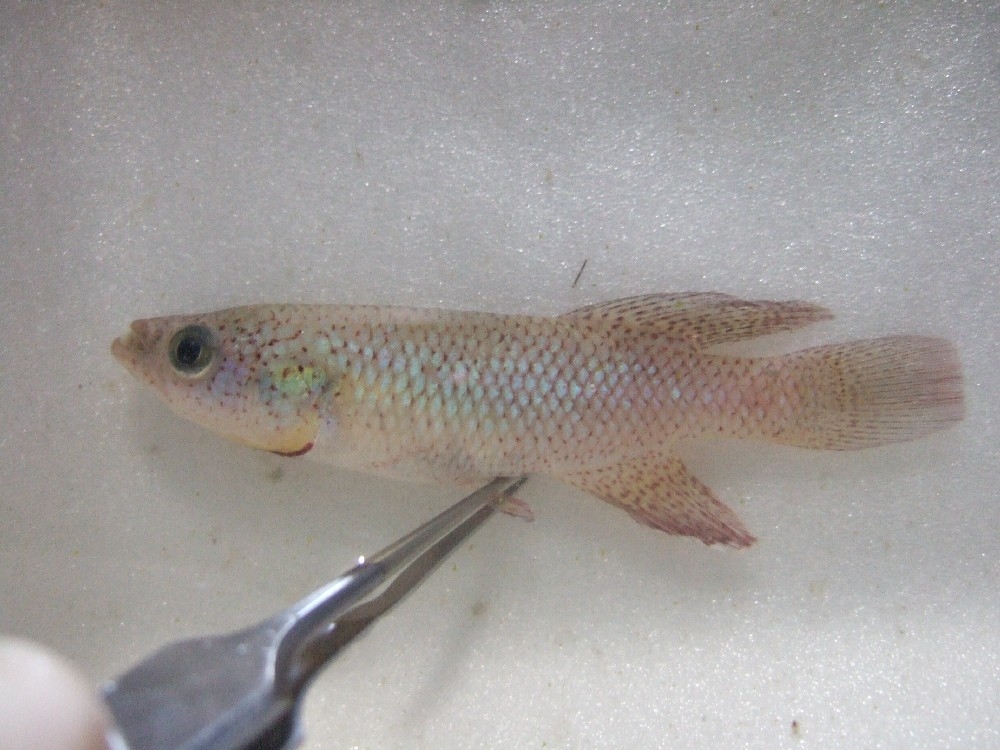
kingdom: Animalia
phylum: Chordata
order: Cyprinodontiformes
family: Nothobranchiidae
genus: Nothobranchius
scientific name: Nothobranchius orthonotus
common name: Spotted killifish
